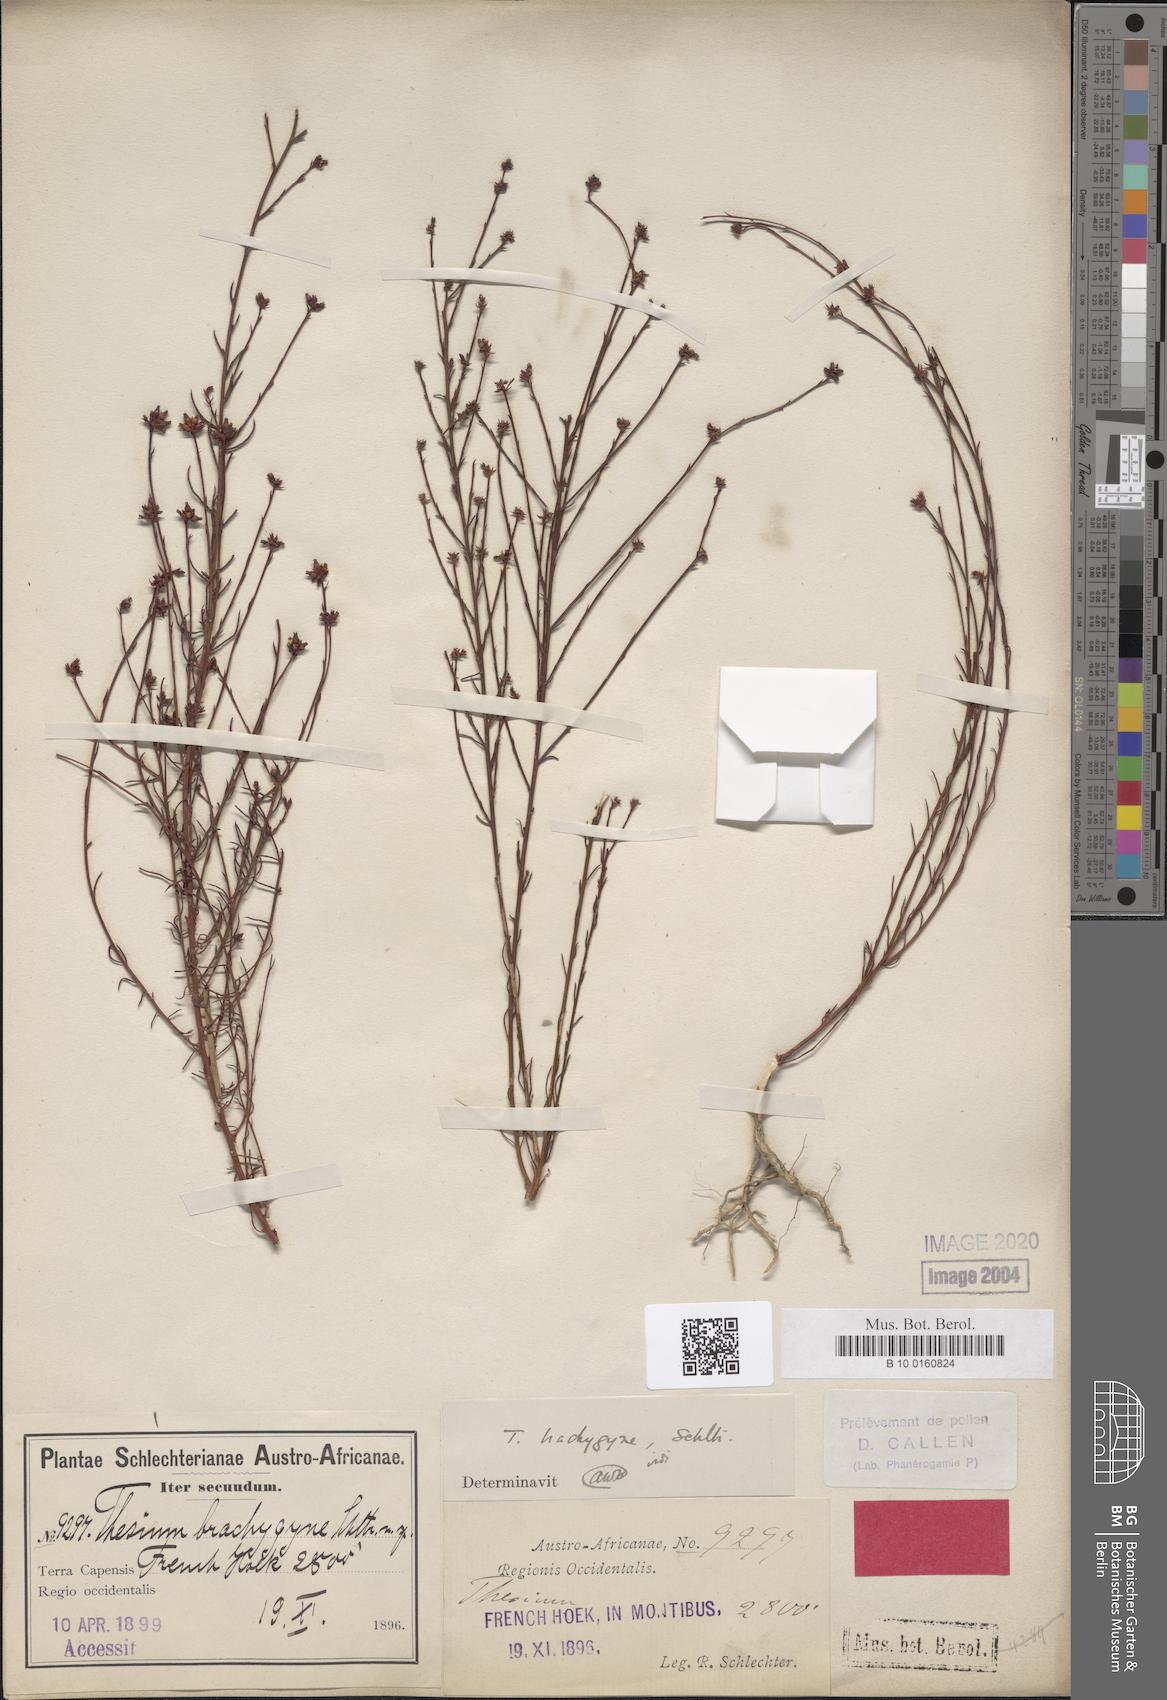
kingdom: Plantae
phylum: Tracheophyta
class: Magnoliopsida
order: Santalales
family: Thesiaceae
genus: Thesium
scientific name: Thesium brachygyne
